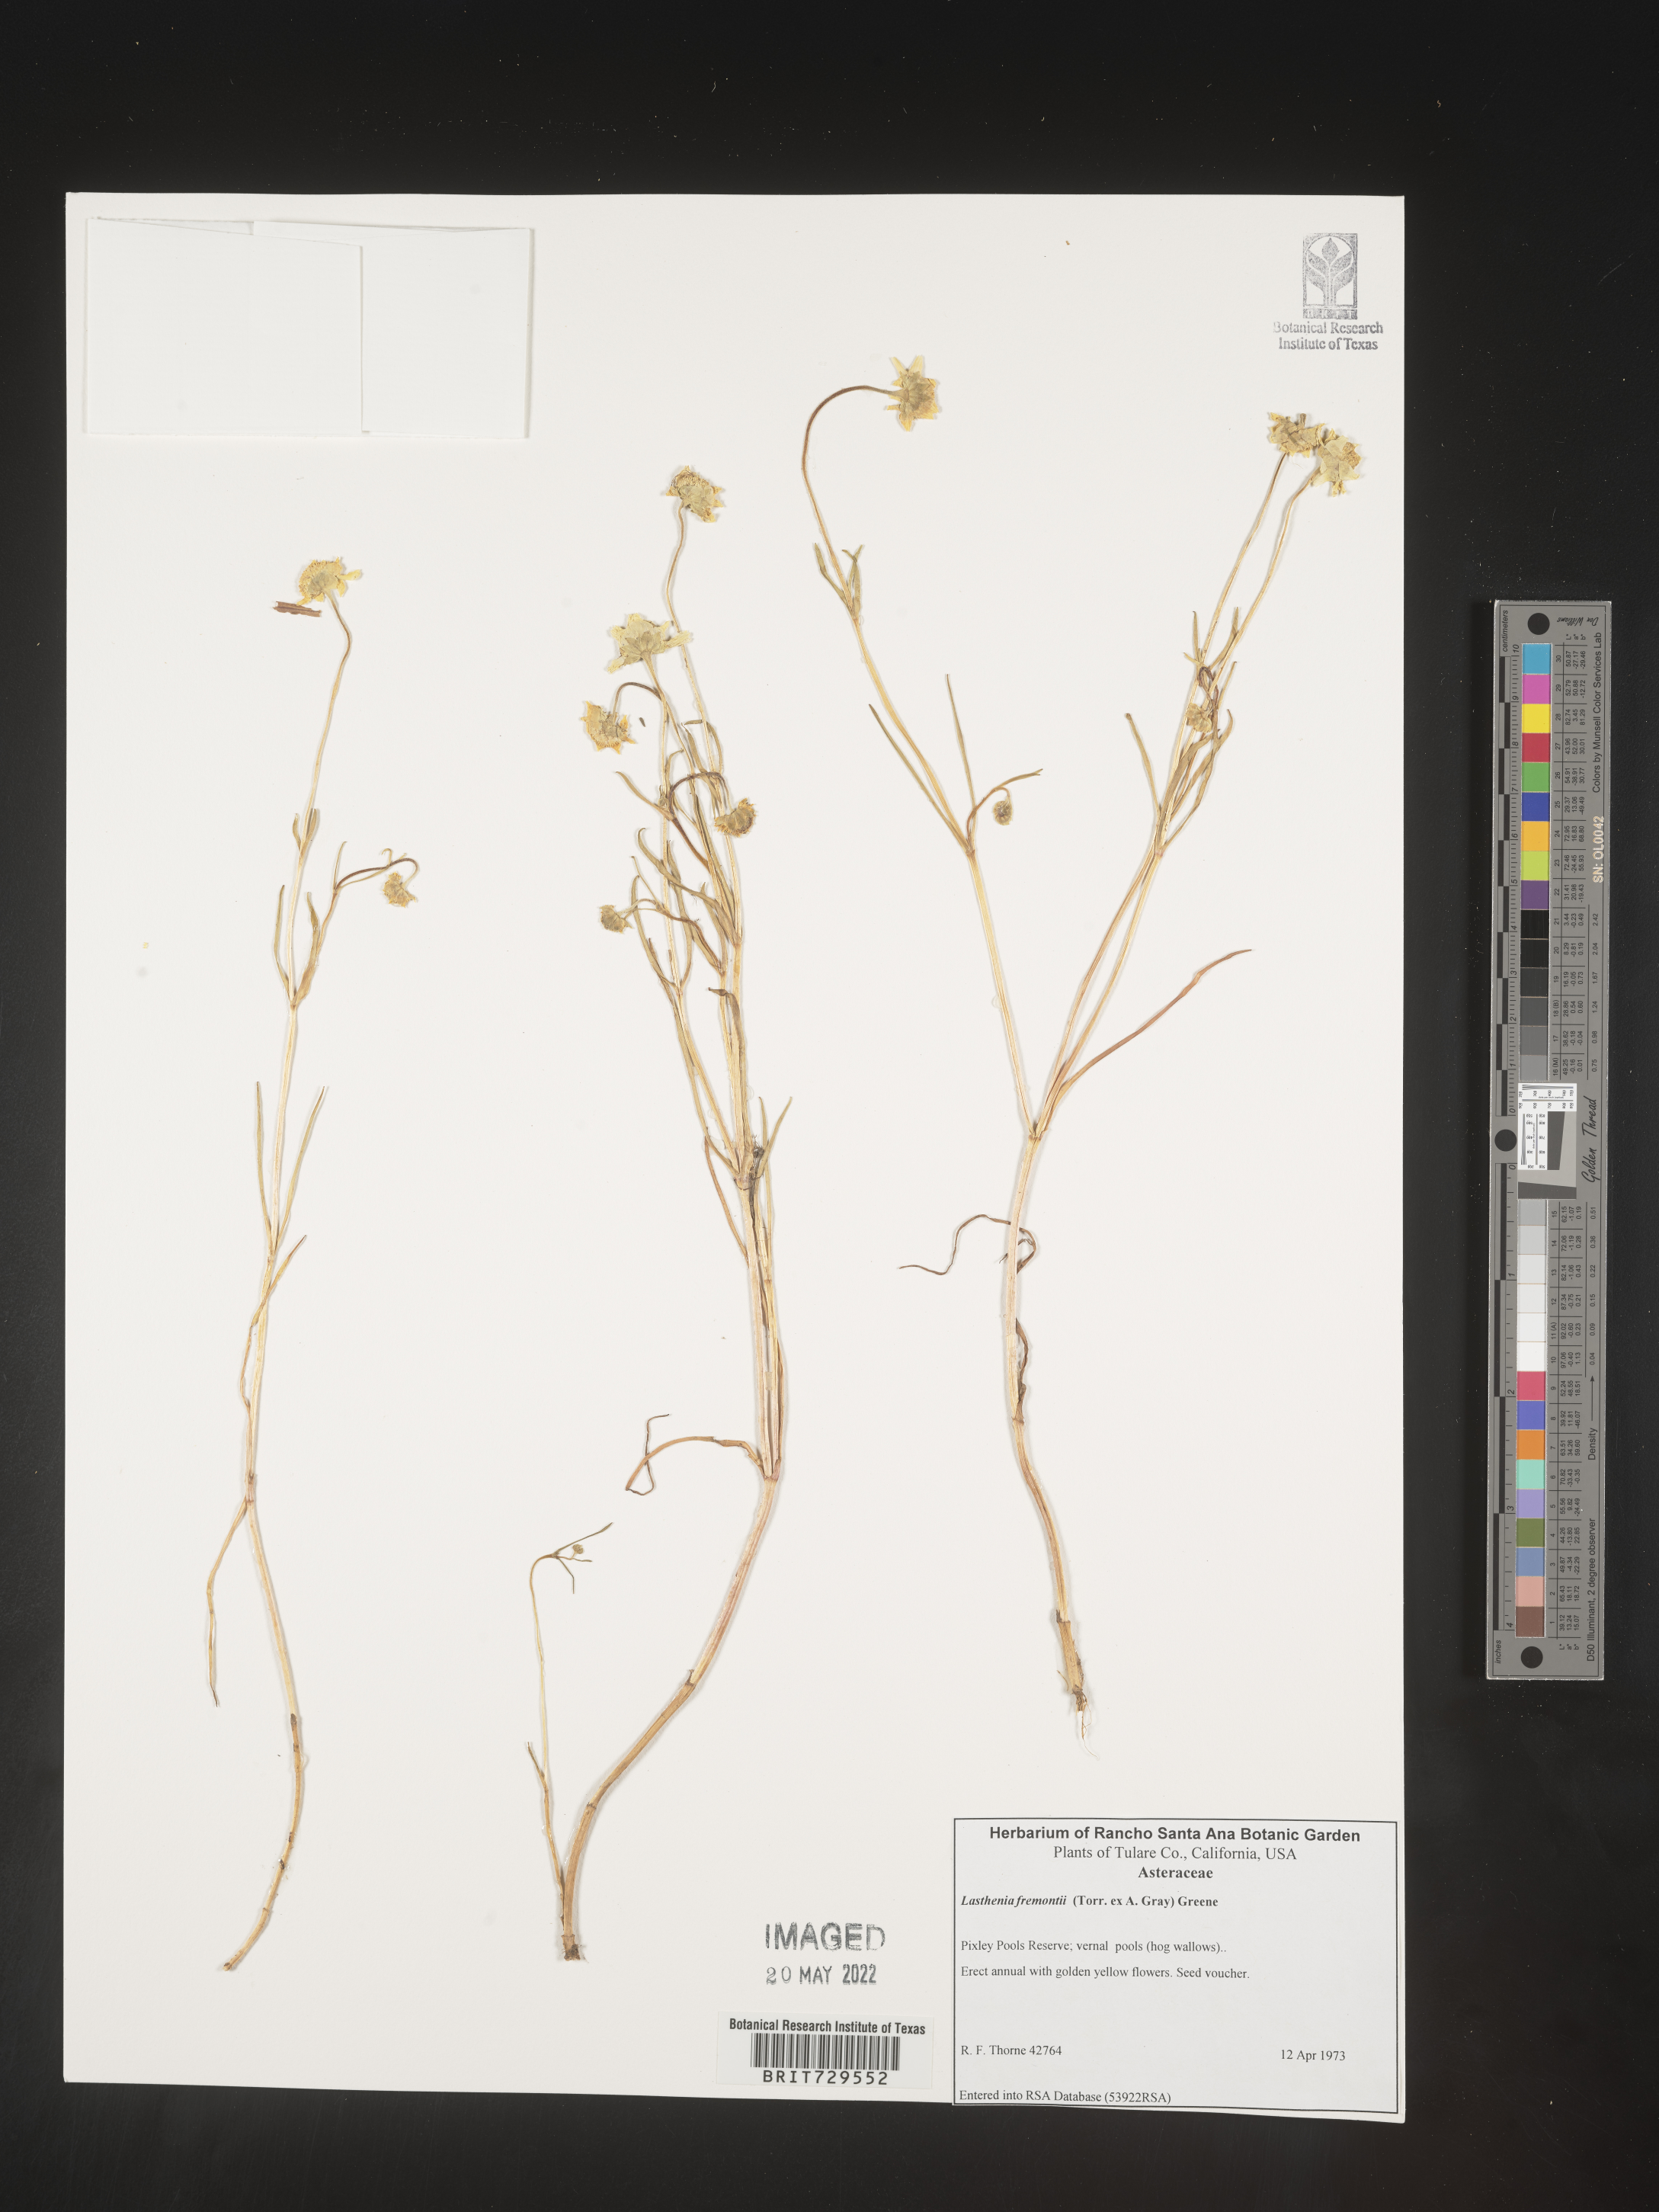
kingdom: Plantae
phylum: Tracheophyta
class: Magnoliopsida
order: Asterales
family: Asteraceae
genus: Lasthenia
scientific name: Lasthenia
